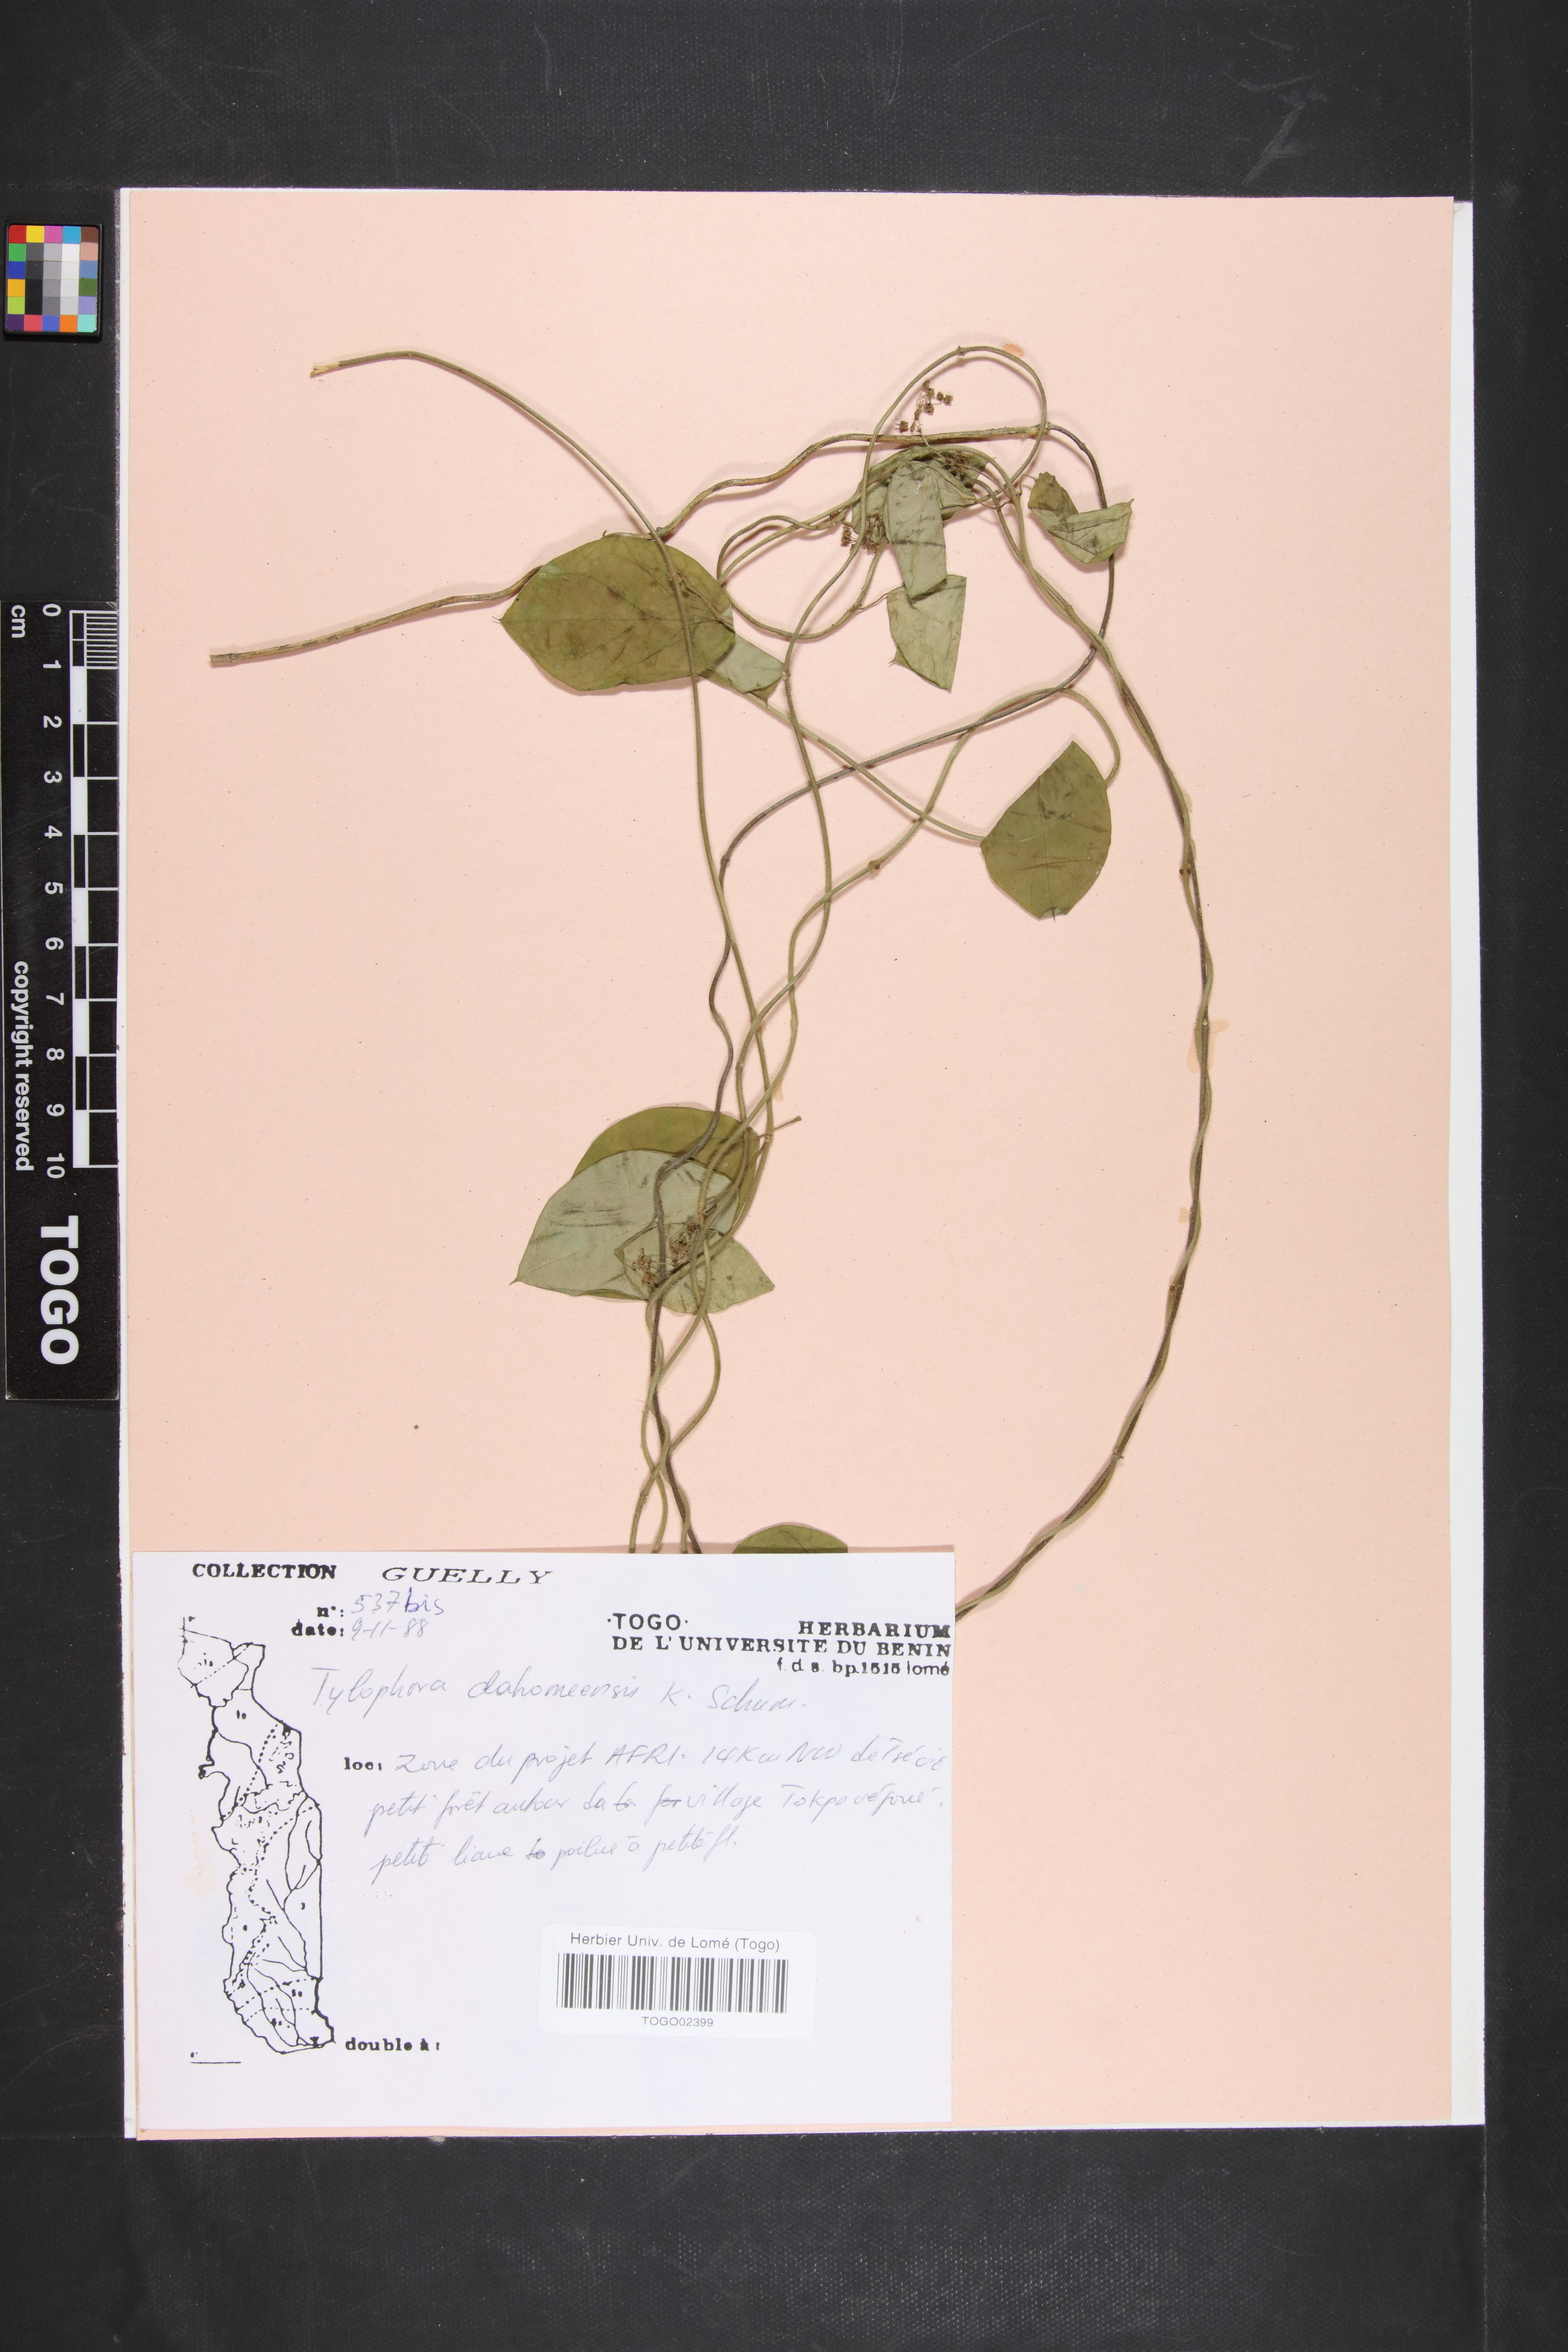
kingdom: Plantae
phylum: Tracheophyta
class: Magnoliopsida
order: Gentianales
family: Apocynaceae
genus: Vincetoxicum
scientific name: Vincetoxicum dahomense
